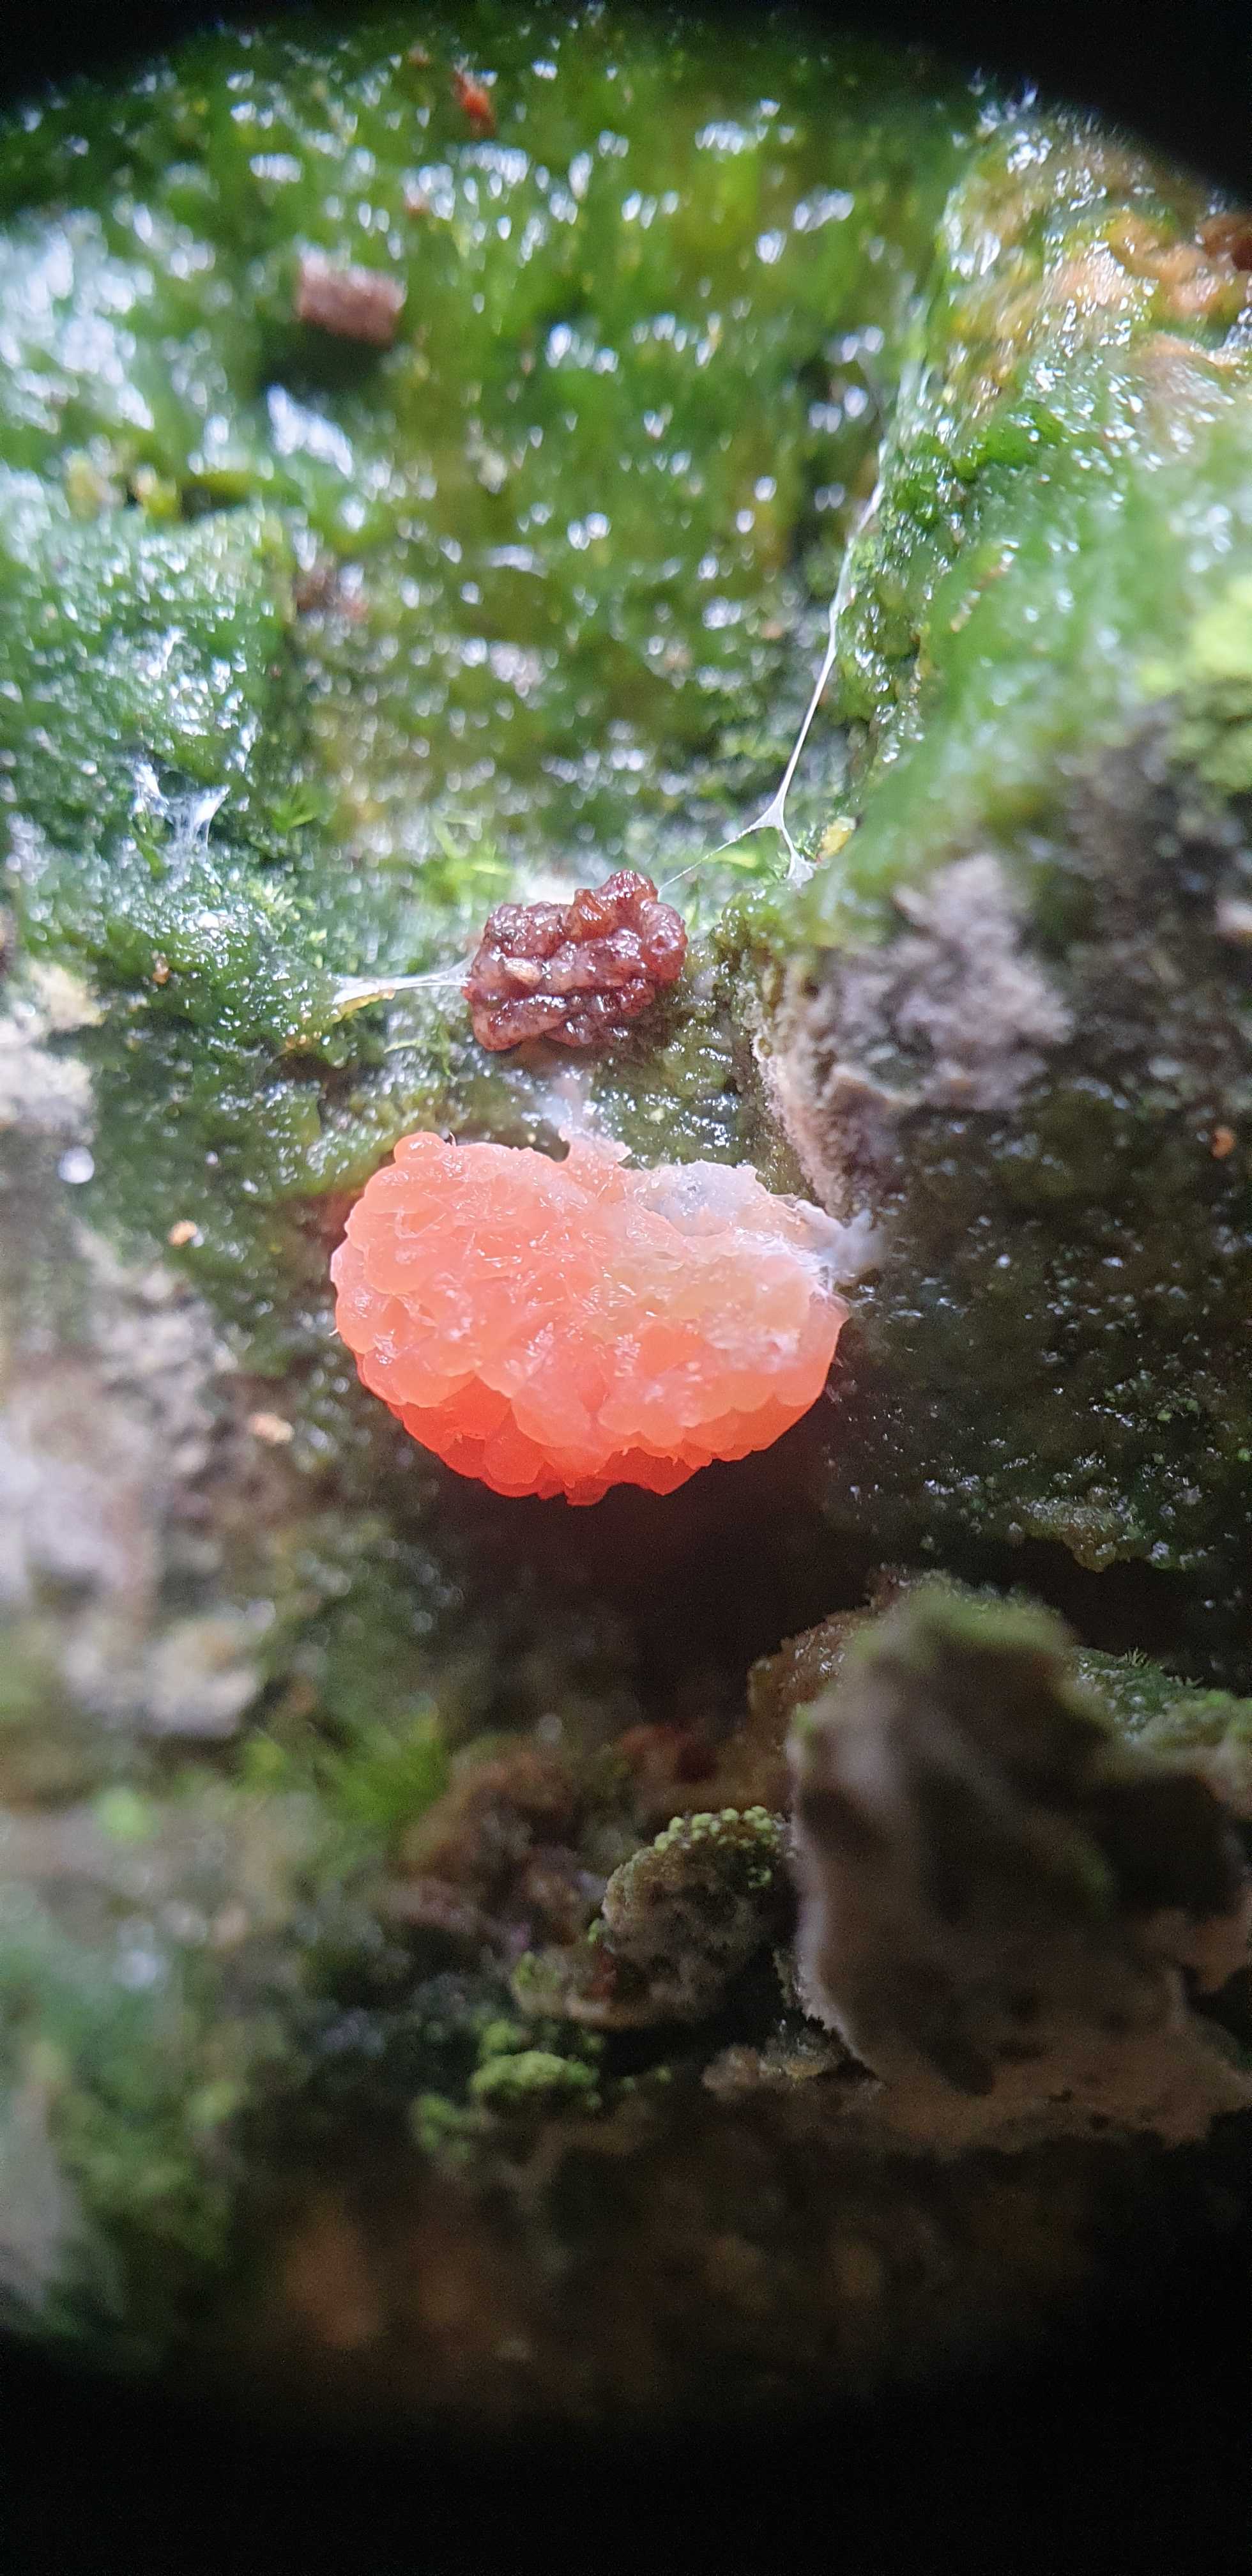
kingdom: Protozoa
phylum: Mycetozoa
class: Myxomycetes
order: Cribrariales
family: Tubiferaceae
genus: Tubifera
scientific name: Tubifera ferruginosa
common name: kanel-støvrør
